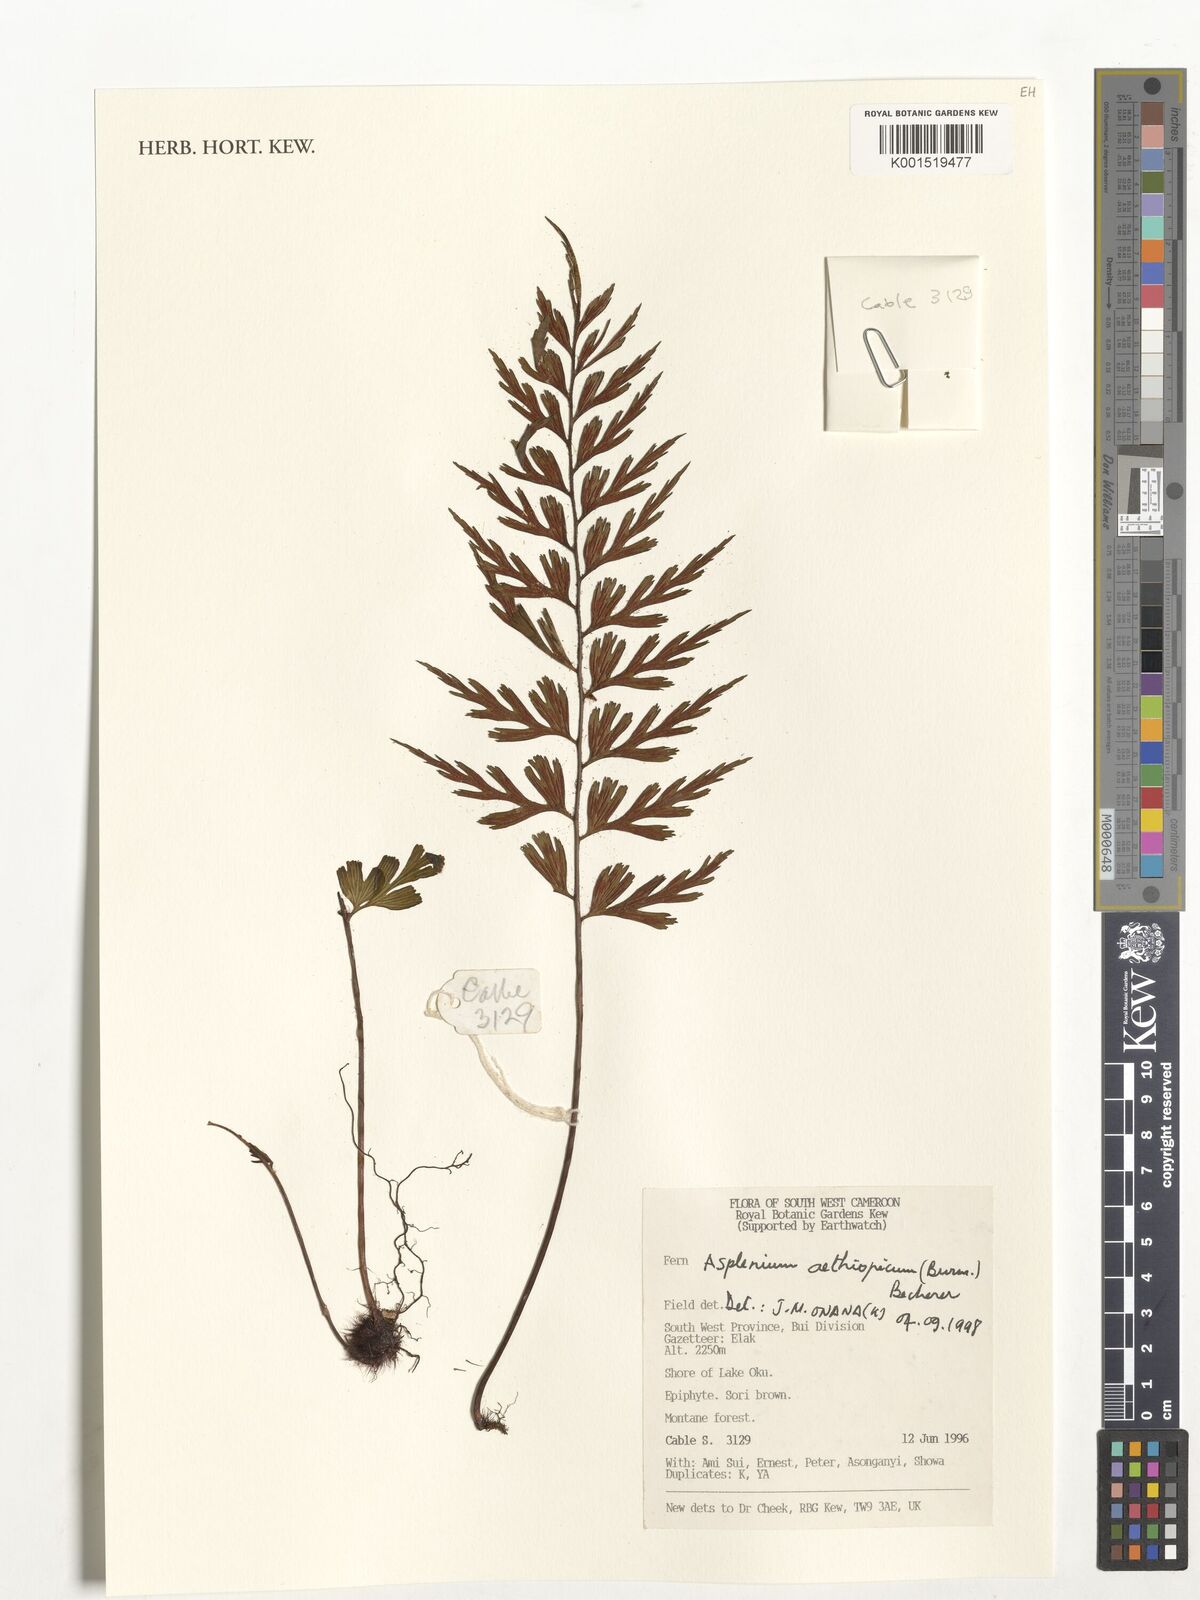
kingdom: Plantae
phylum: Tracheophyta
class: Polypodiopsida
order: Polypodiales
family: Aspleniaceae
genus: Asplenium
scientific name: Asplenium aethiopicum
